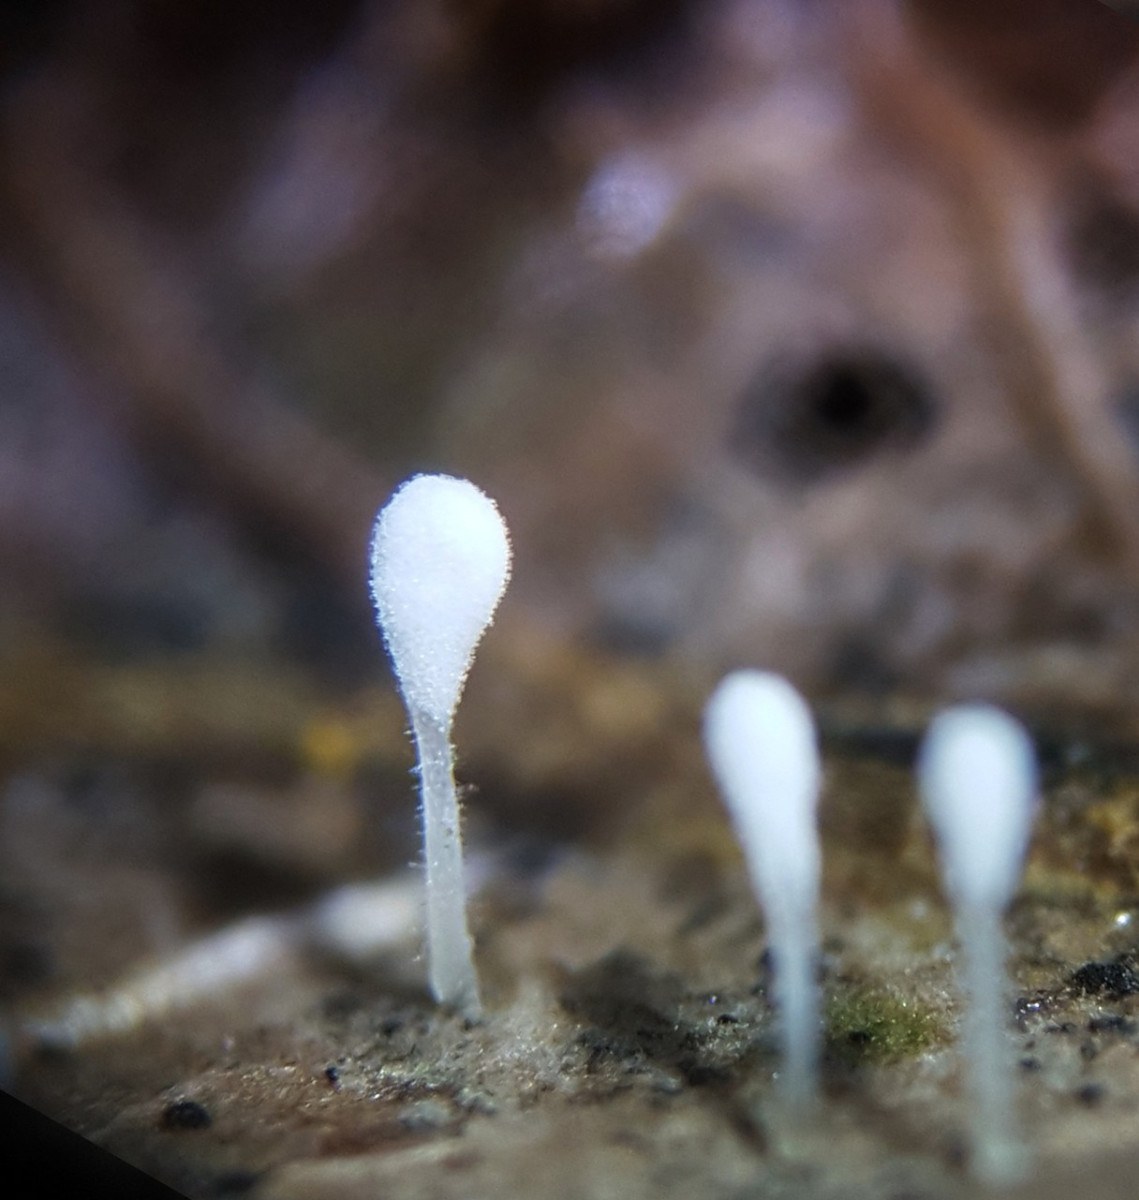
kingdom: Fungi
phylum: Basidiomycota
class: Agaricomycetes
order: Agaricales
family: Typhulaceae
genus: Typhula
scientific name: Typhula setipes
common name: liden trådkølle
